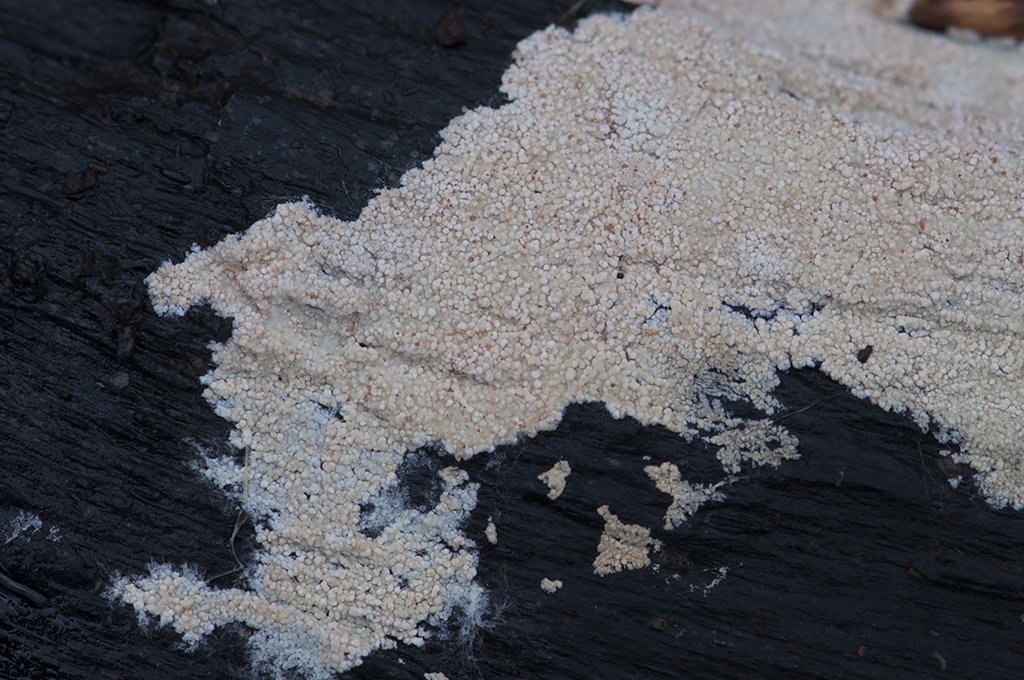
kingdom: Fungi
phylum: Basidiomycota
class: Agaricomycetes
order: Agaricales
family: Stephanosporaceae
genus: Cristinia
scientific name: Cristinia helvetica
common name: glatsporet citrushinde
